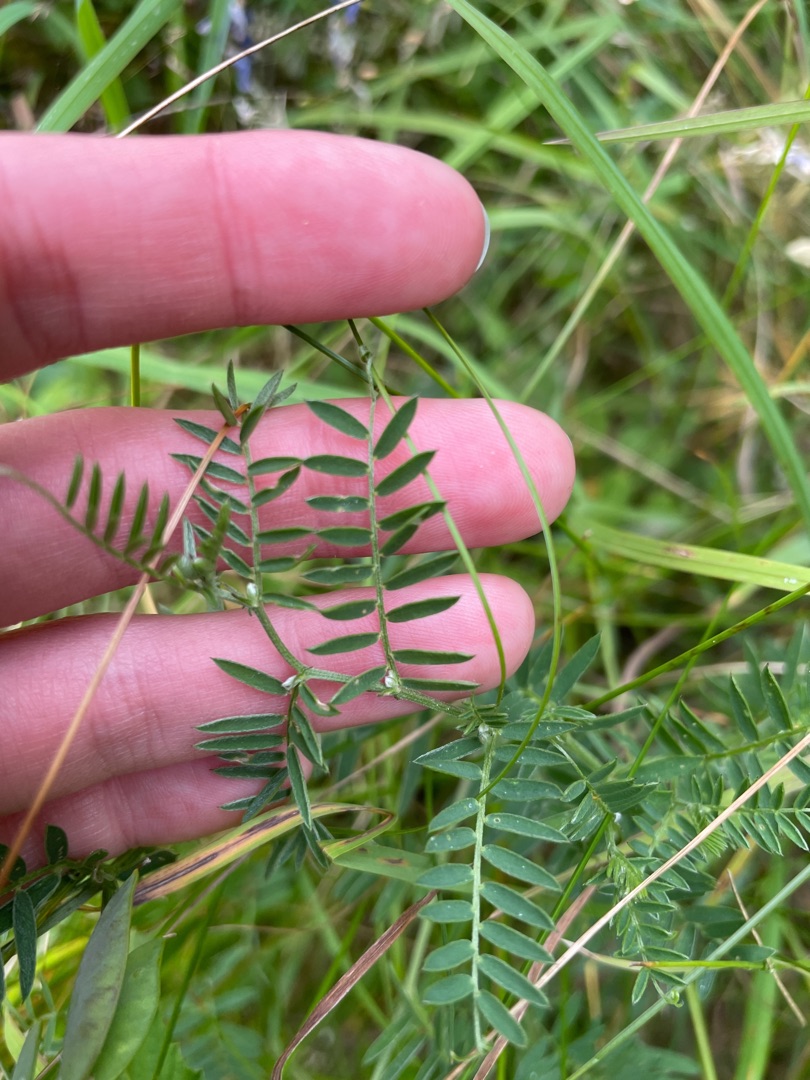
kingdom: Plantae
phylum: Tracheophyta
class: Magnoliopsida
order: Fabales
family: Fabaceae
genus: Vicia
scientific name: Vicia cracca
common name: Muse-vikke
